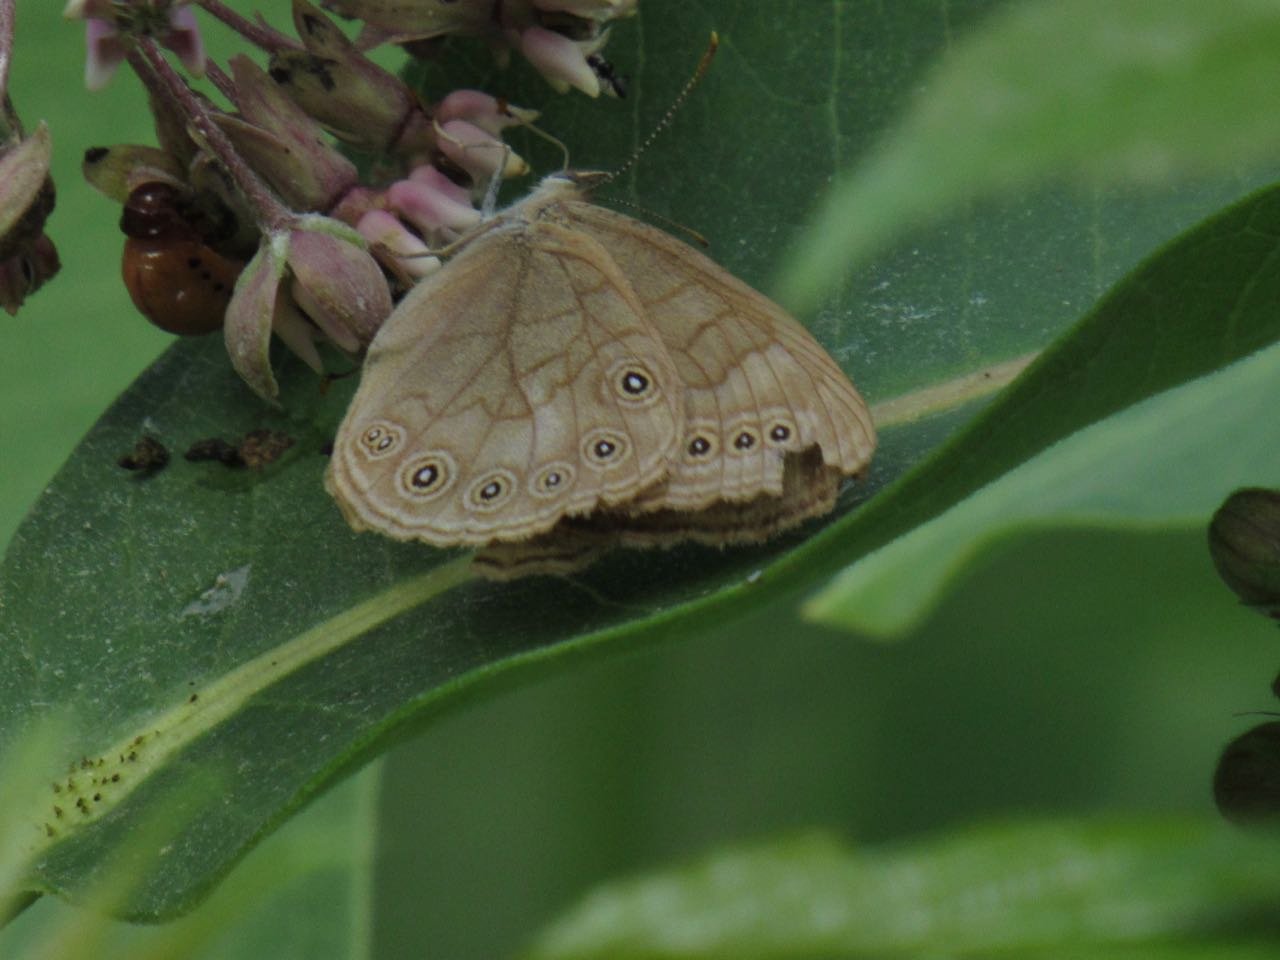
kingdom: Animalia
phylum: Arthropoda
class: Insecta
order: Lepidoptera
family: Nymphalidae
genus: Lethe
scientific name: Lethe eurydice
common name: Eyed Brown
